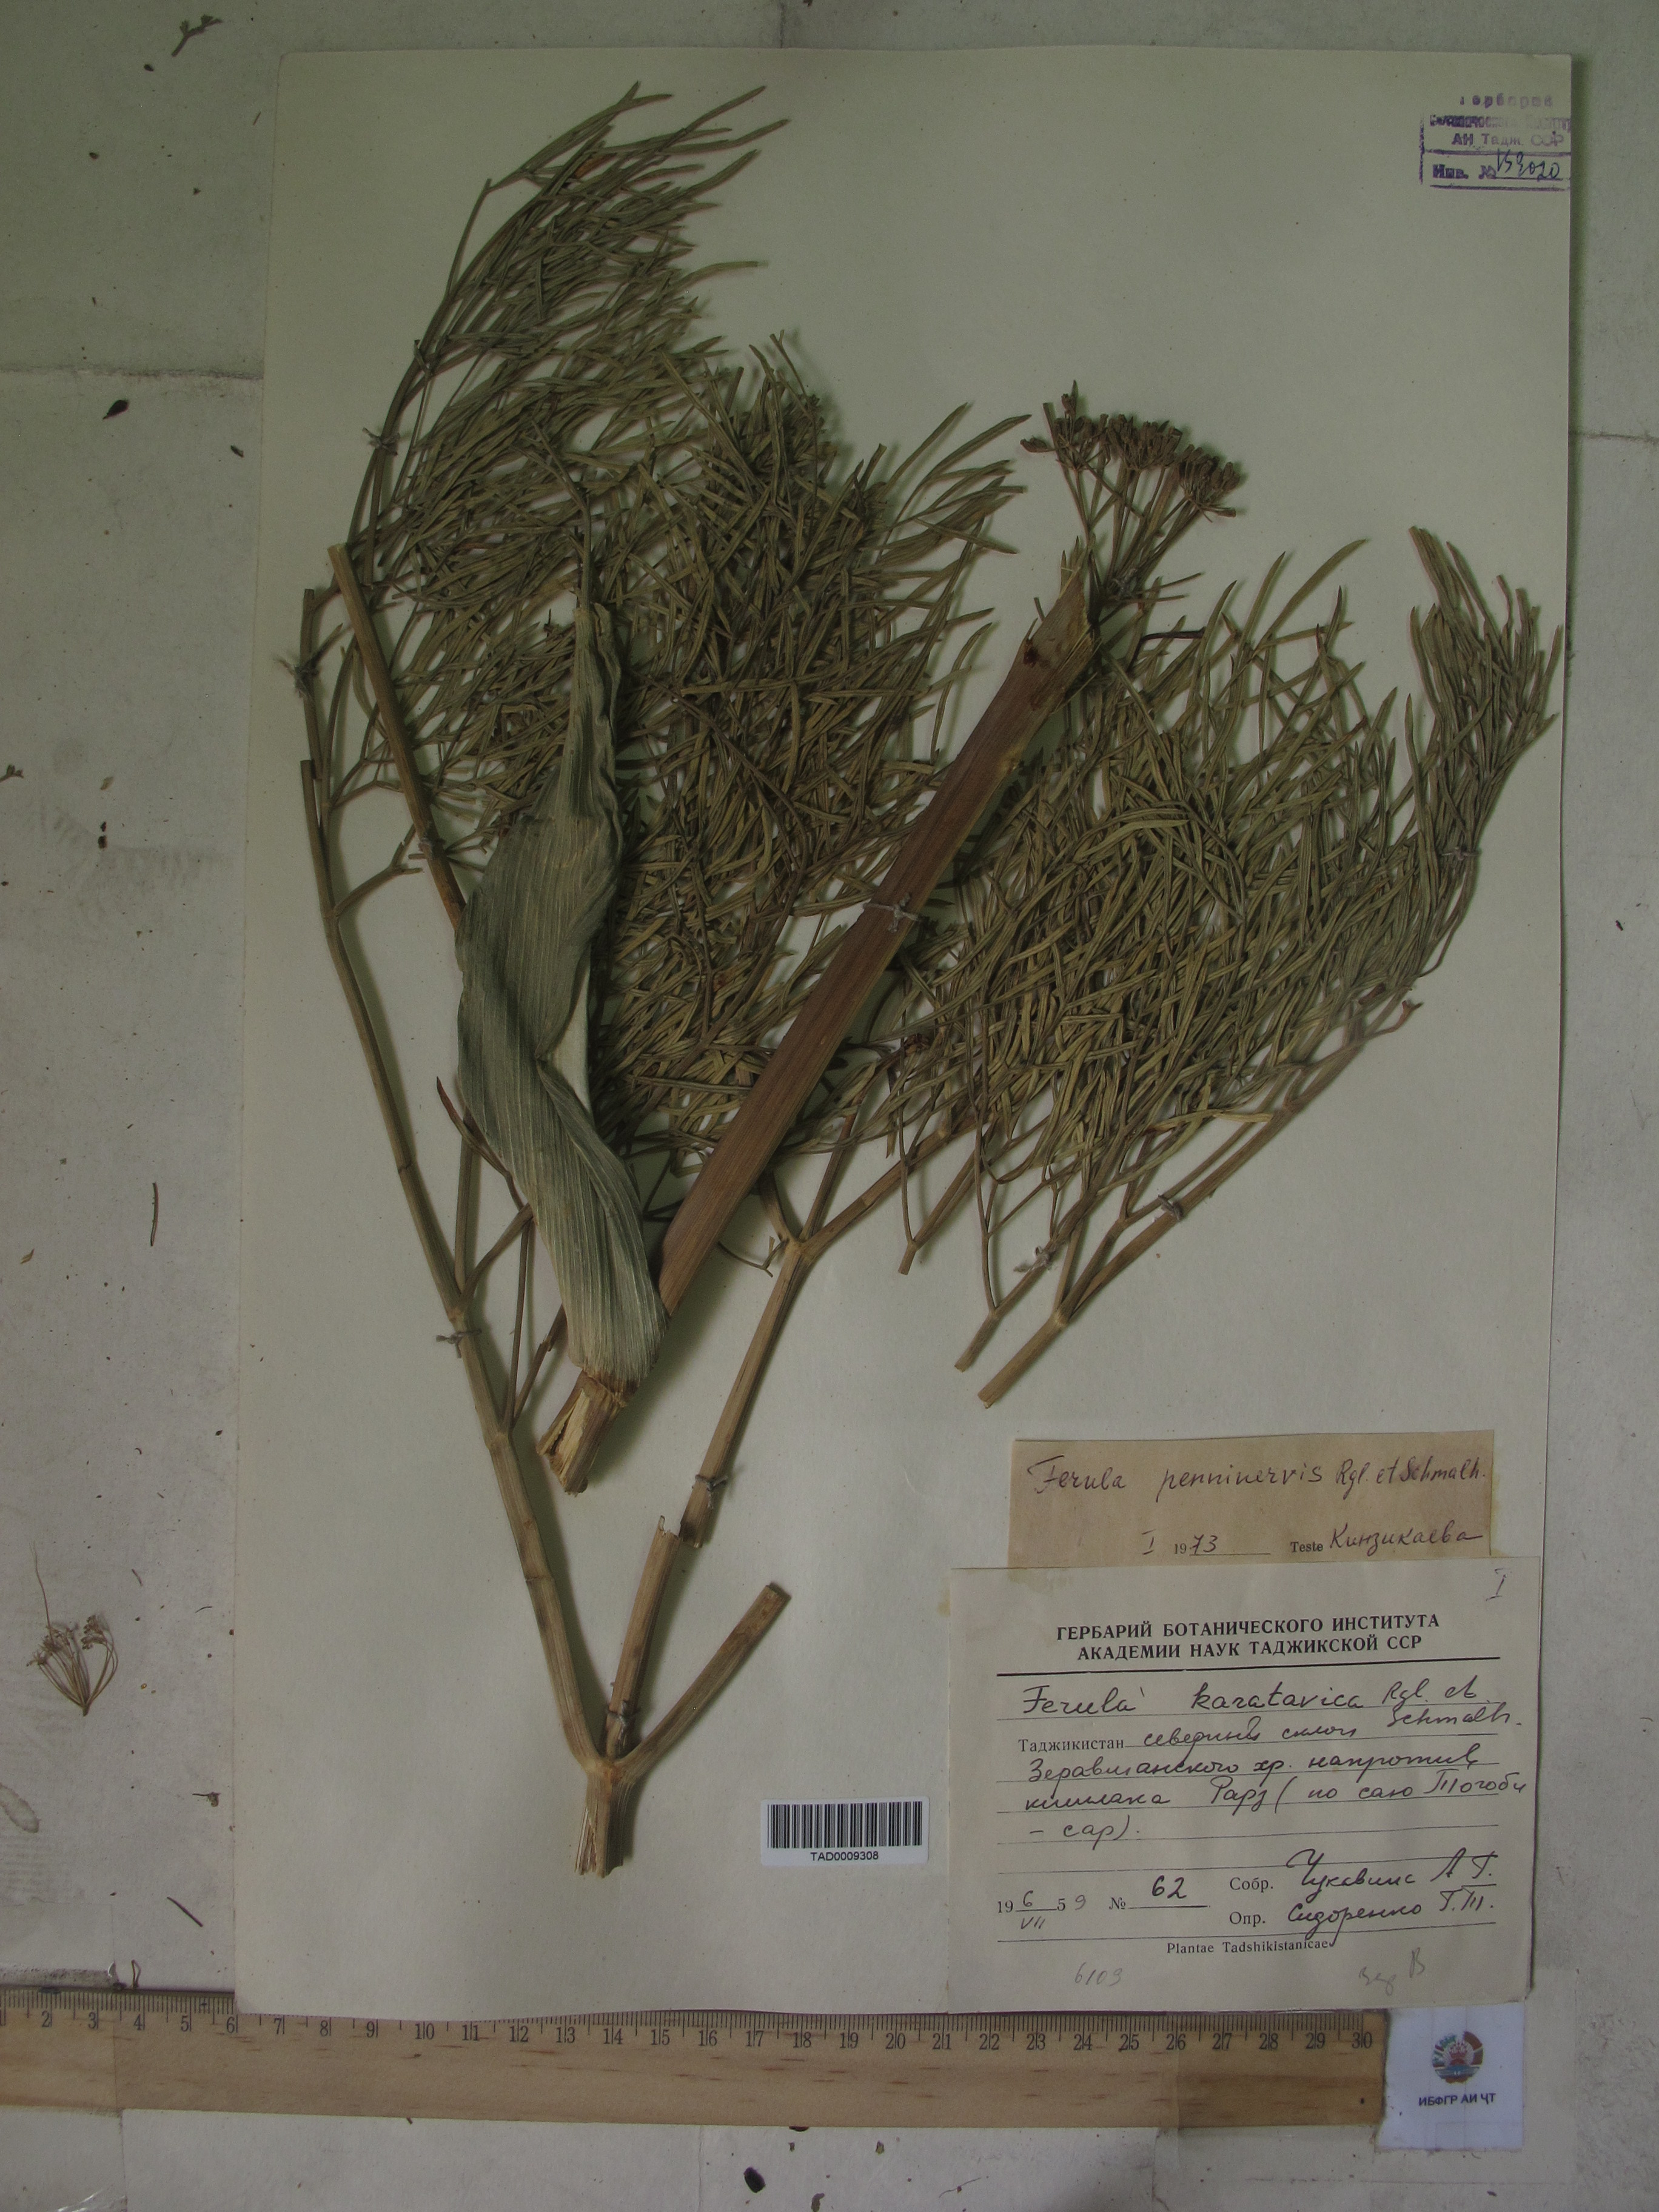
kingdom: Plantae
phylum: Tracheophyta
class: Magnoliopsida
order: Apiales
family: Apiaceae
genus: Ferula
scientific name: Ferula karatavica
